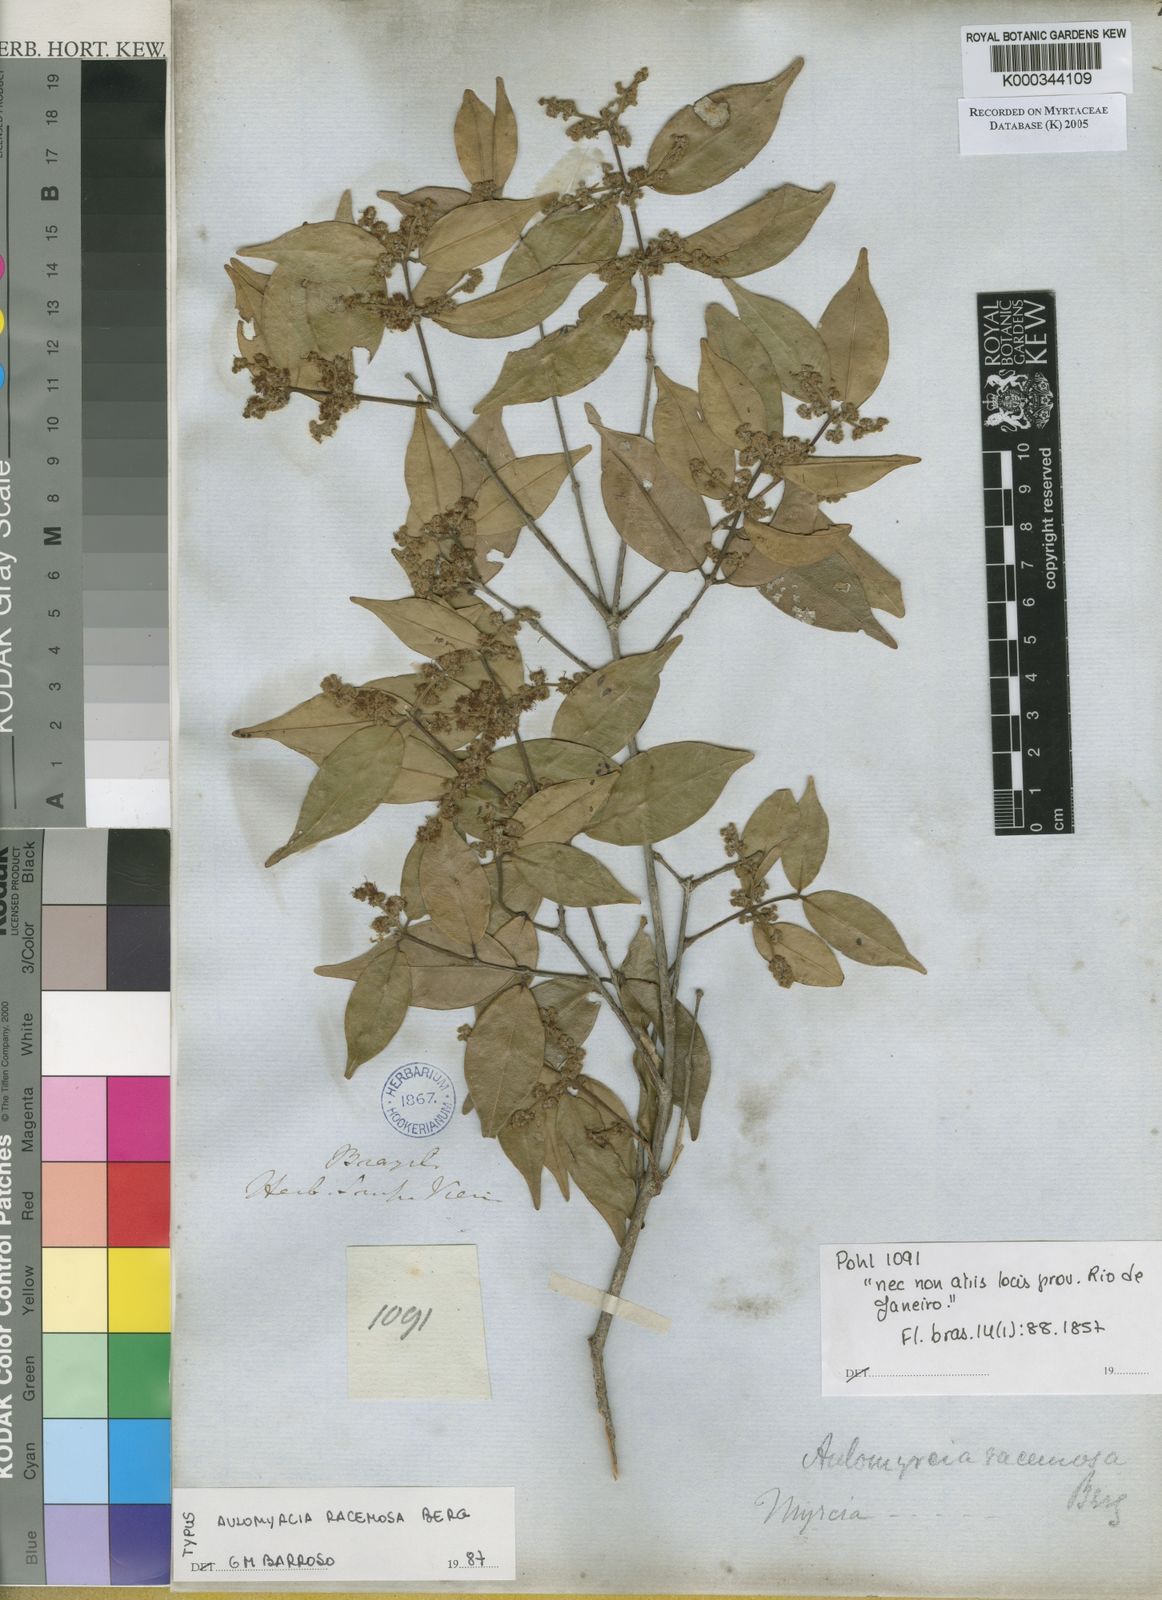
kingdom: Plantae
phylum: Tracheophyta
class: Magnoliopsida
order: Myrtales
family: Myrtaceae
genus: Myrcia
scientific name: Myrcia racemosa
